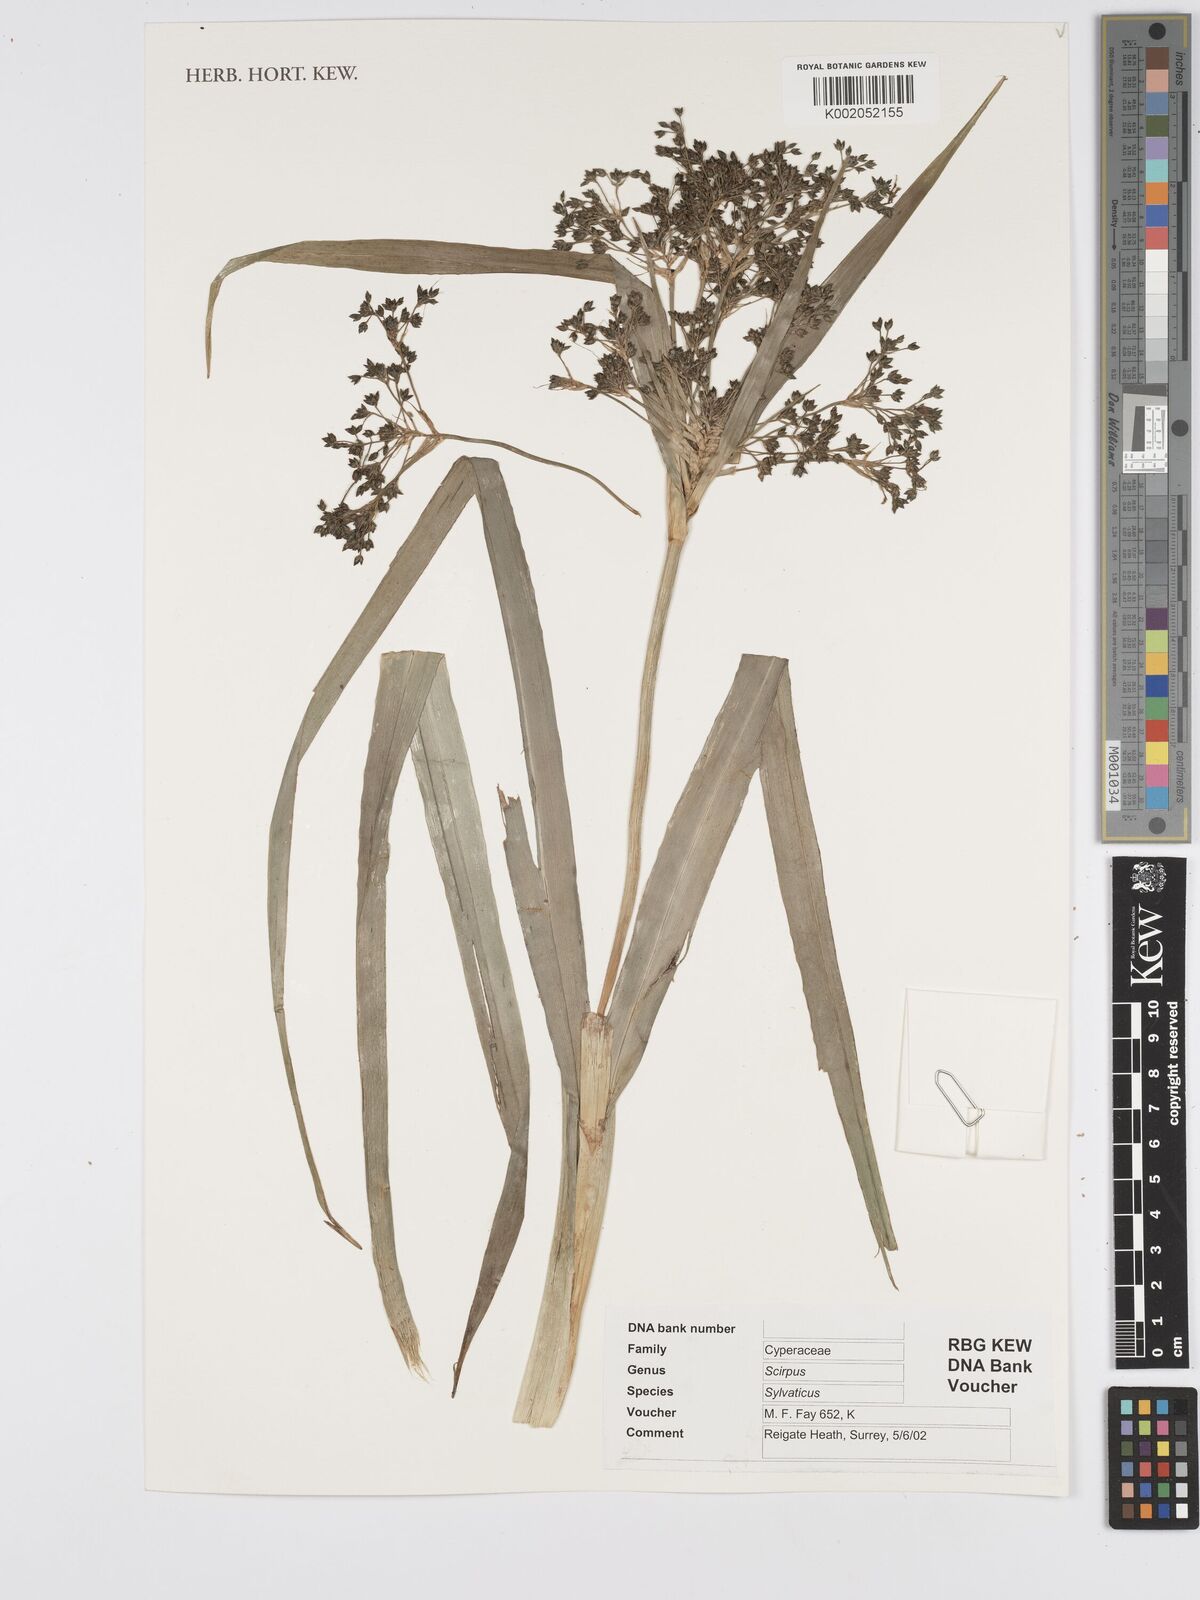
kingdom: Plantae
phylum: Tracheophyta
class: Liliopsida
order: Poales
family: Cyperaceae
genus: Scirpus
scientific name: Scirpus sylvaticus
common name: Wood club-rush
